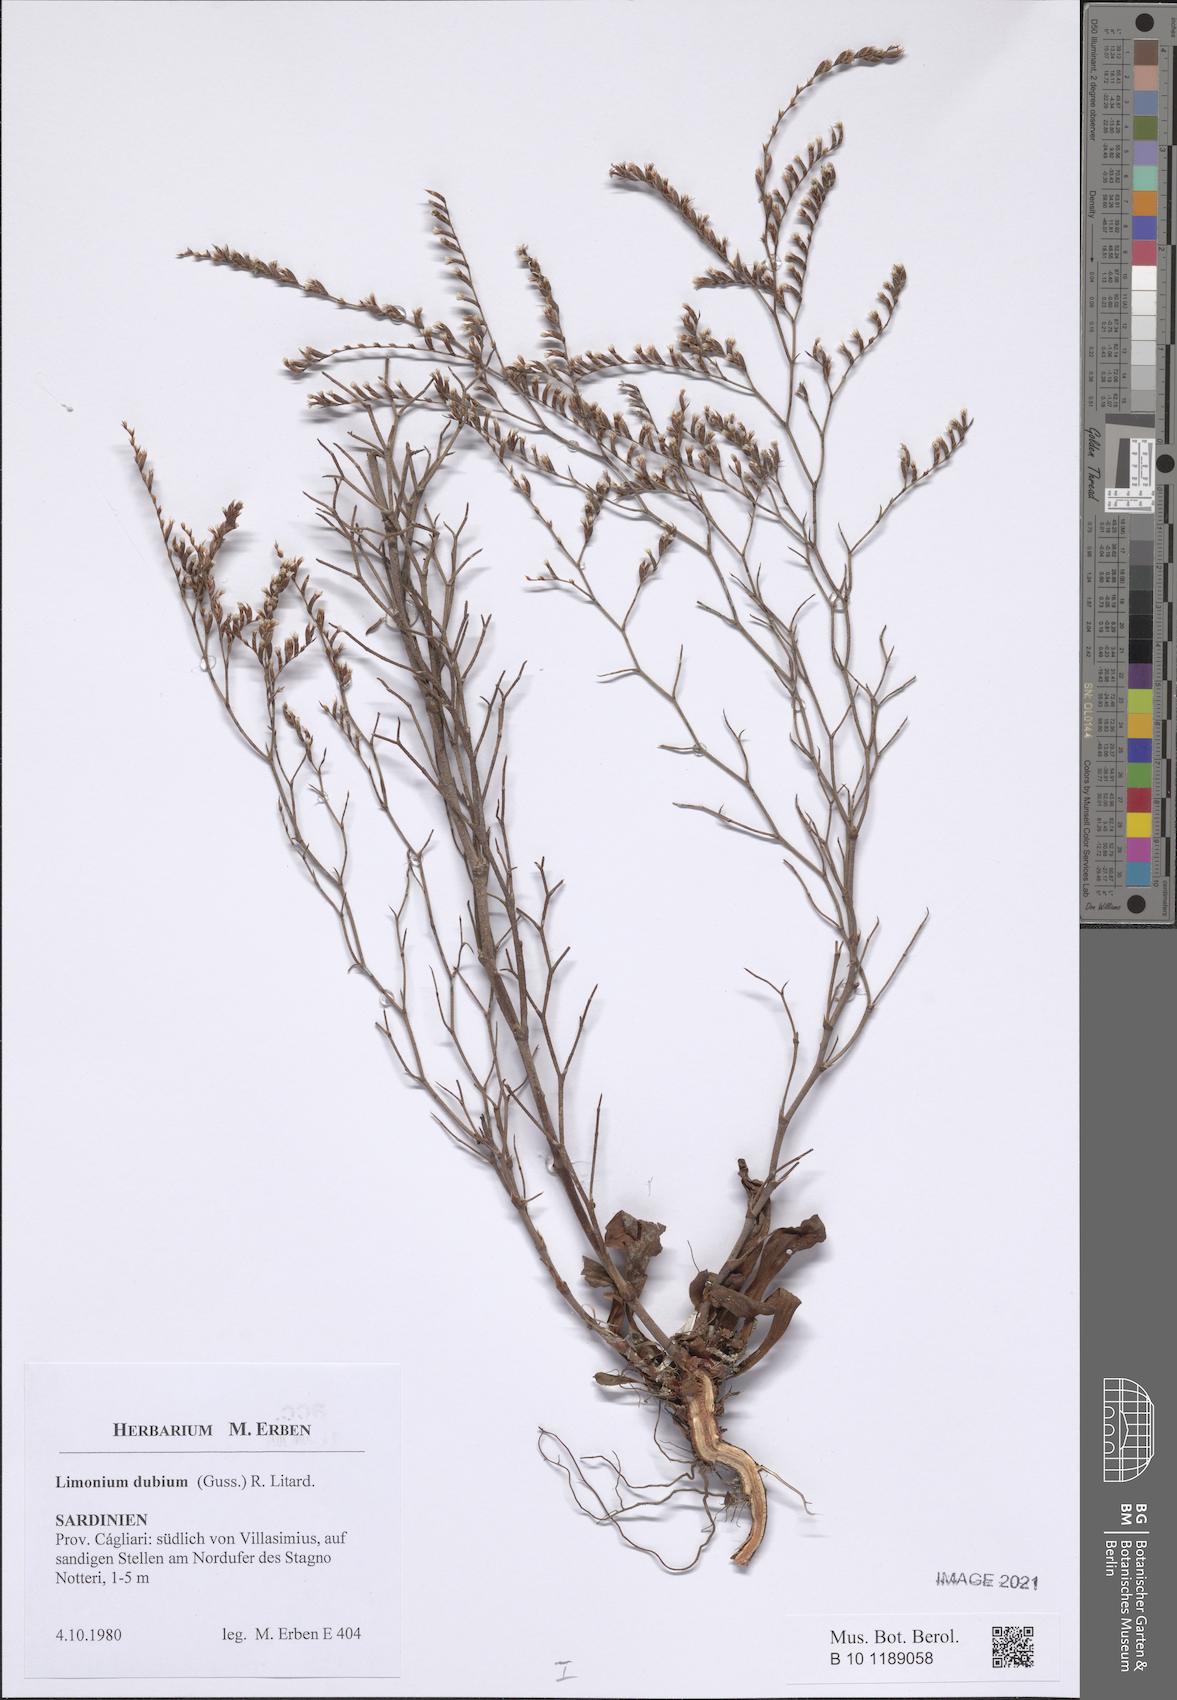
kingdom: Plantae
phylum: Tracheophyta
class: Magnoliopsida
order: Caryophyllales
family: Plumbaginaceae
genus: Limonium
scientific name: Limonium dubium
